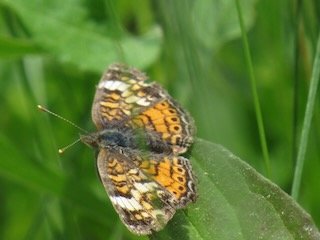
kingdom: Animalia
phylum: Arthropoda
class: Insecta
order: Lepidoptera
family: Nymphalidae
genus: Phyciodes
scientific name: Phyciodes tharos
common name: Pearl Crescent
